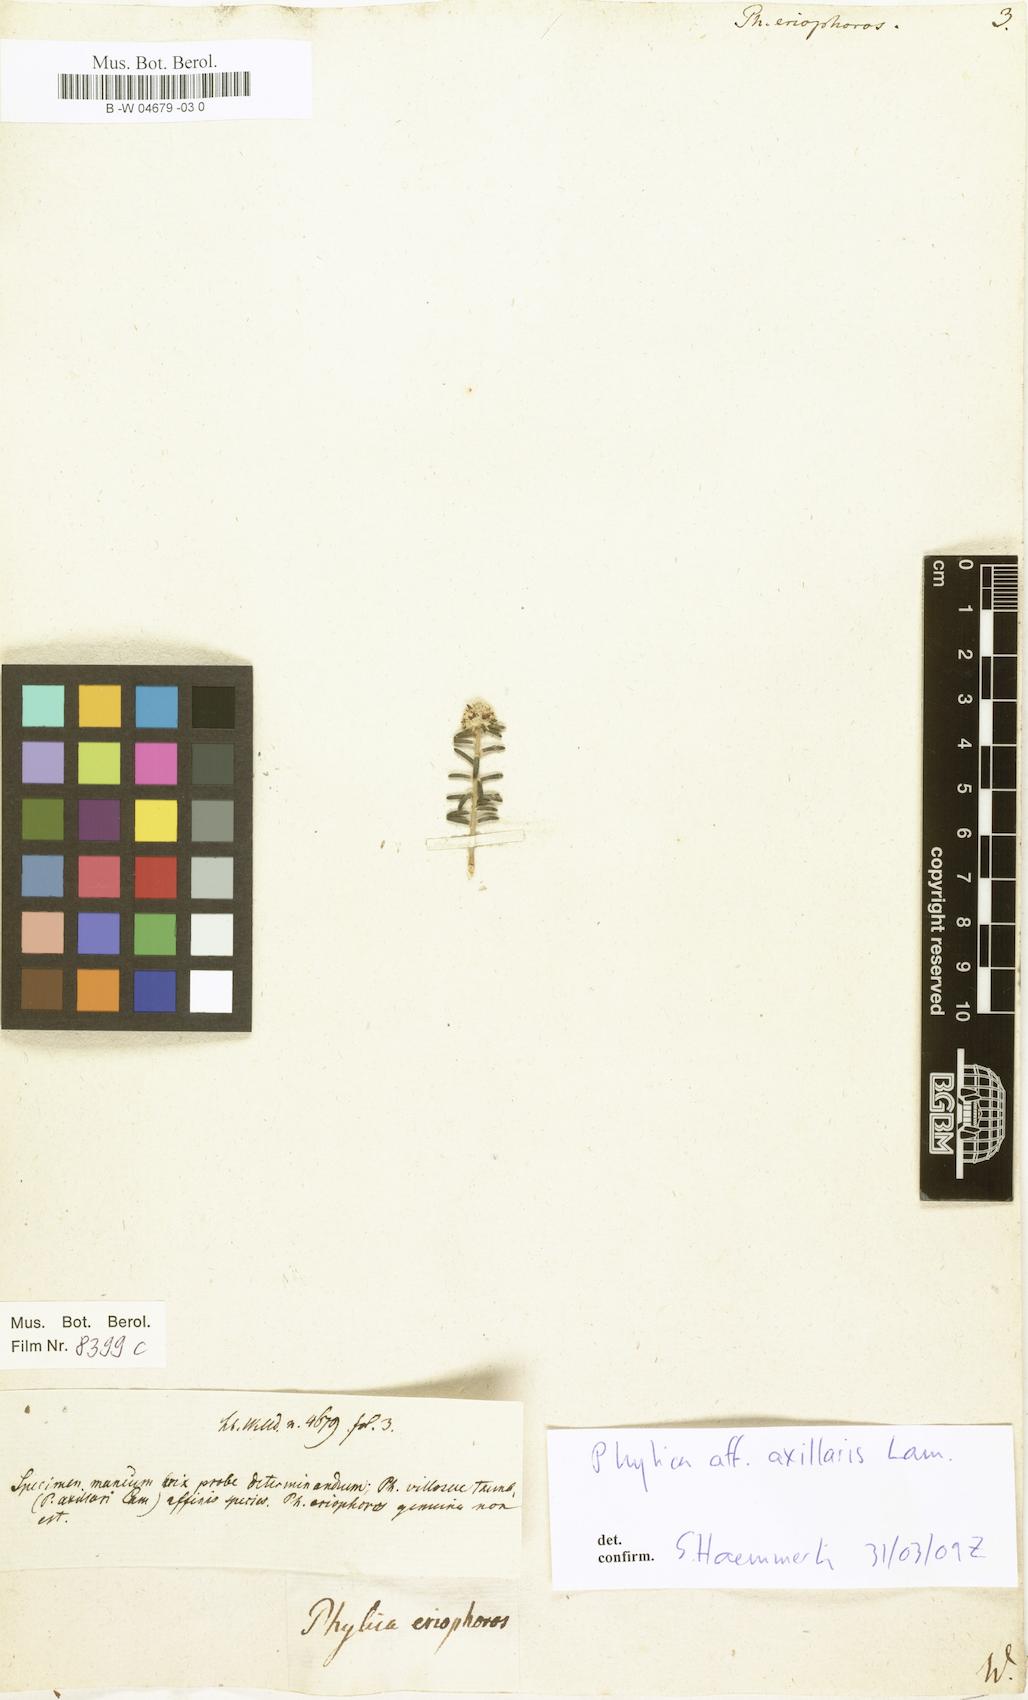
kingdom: Plantae
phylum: Tracheophyta
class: Magnoliopsida
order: Rosales
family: Rhamnaceae
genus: Phylica
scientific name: Phylica imberbis
